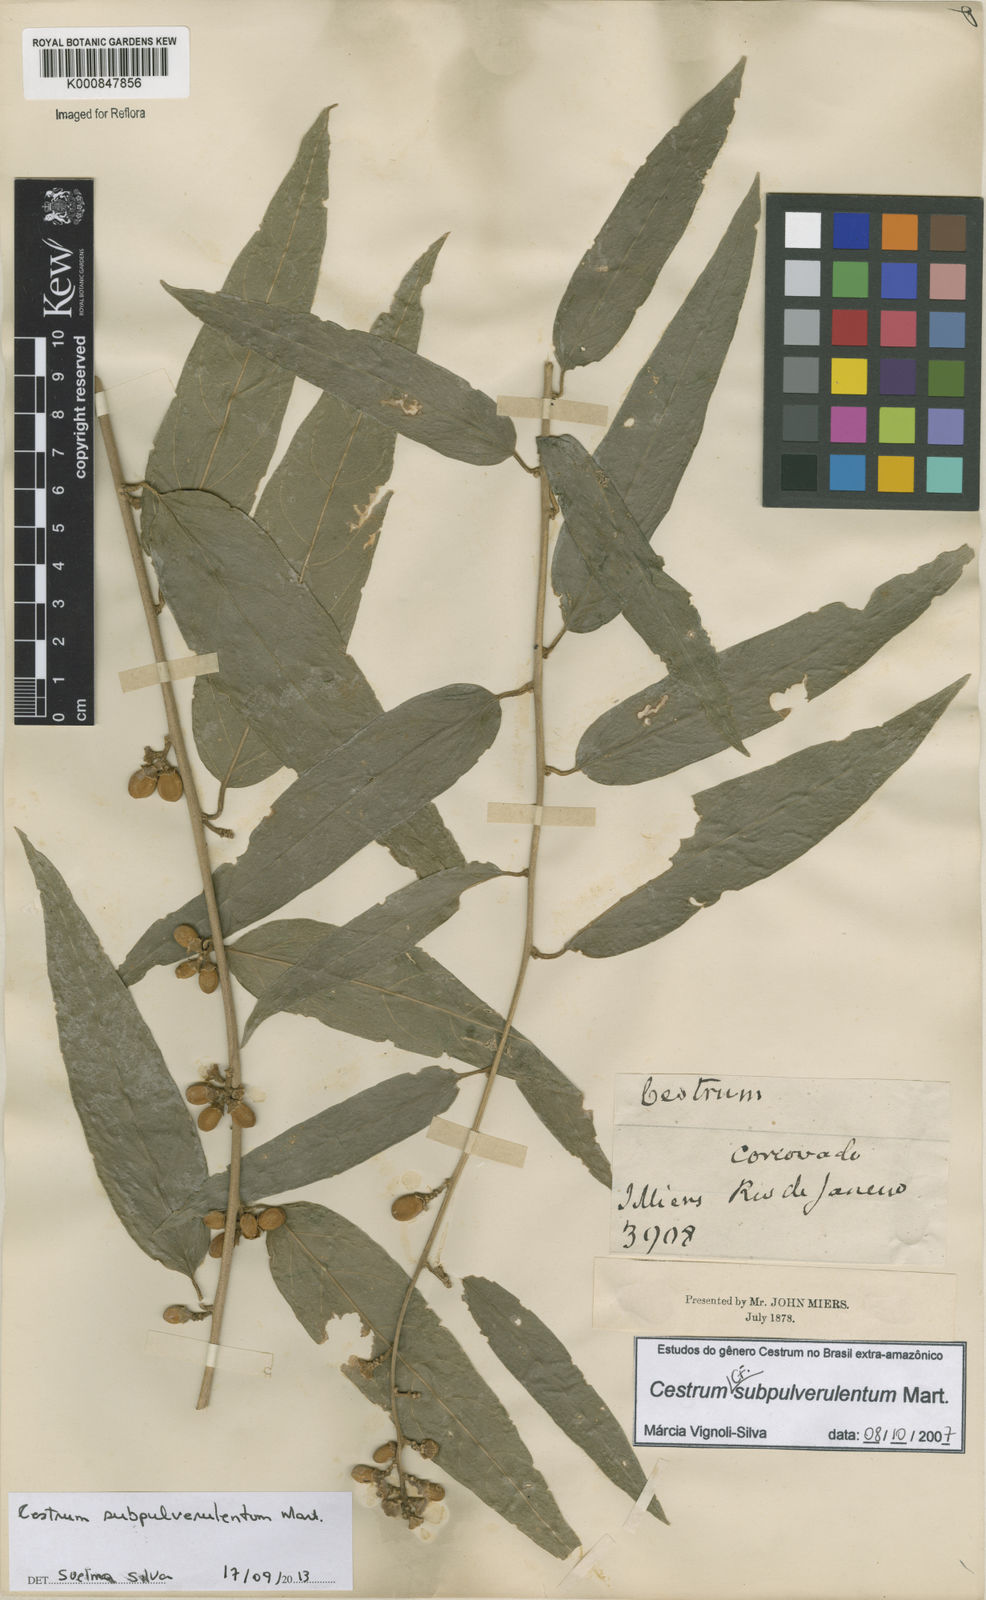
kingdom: Plantae
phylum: Tracheophyta
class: Magnoliopsida
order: Solanales
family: Solanaceae
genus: Cestrum
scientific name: Cestrum subpulverulentum
